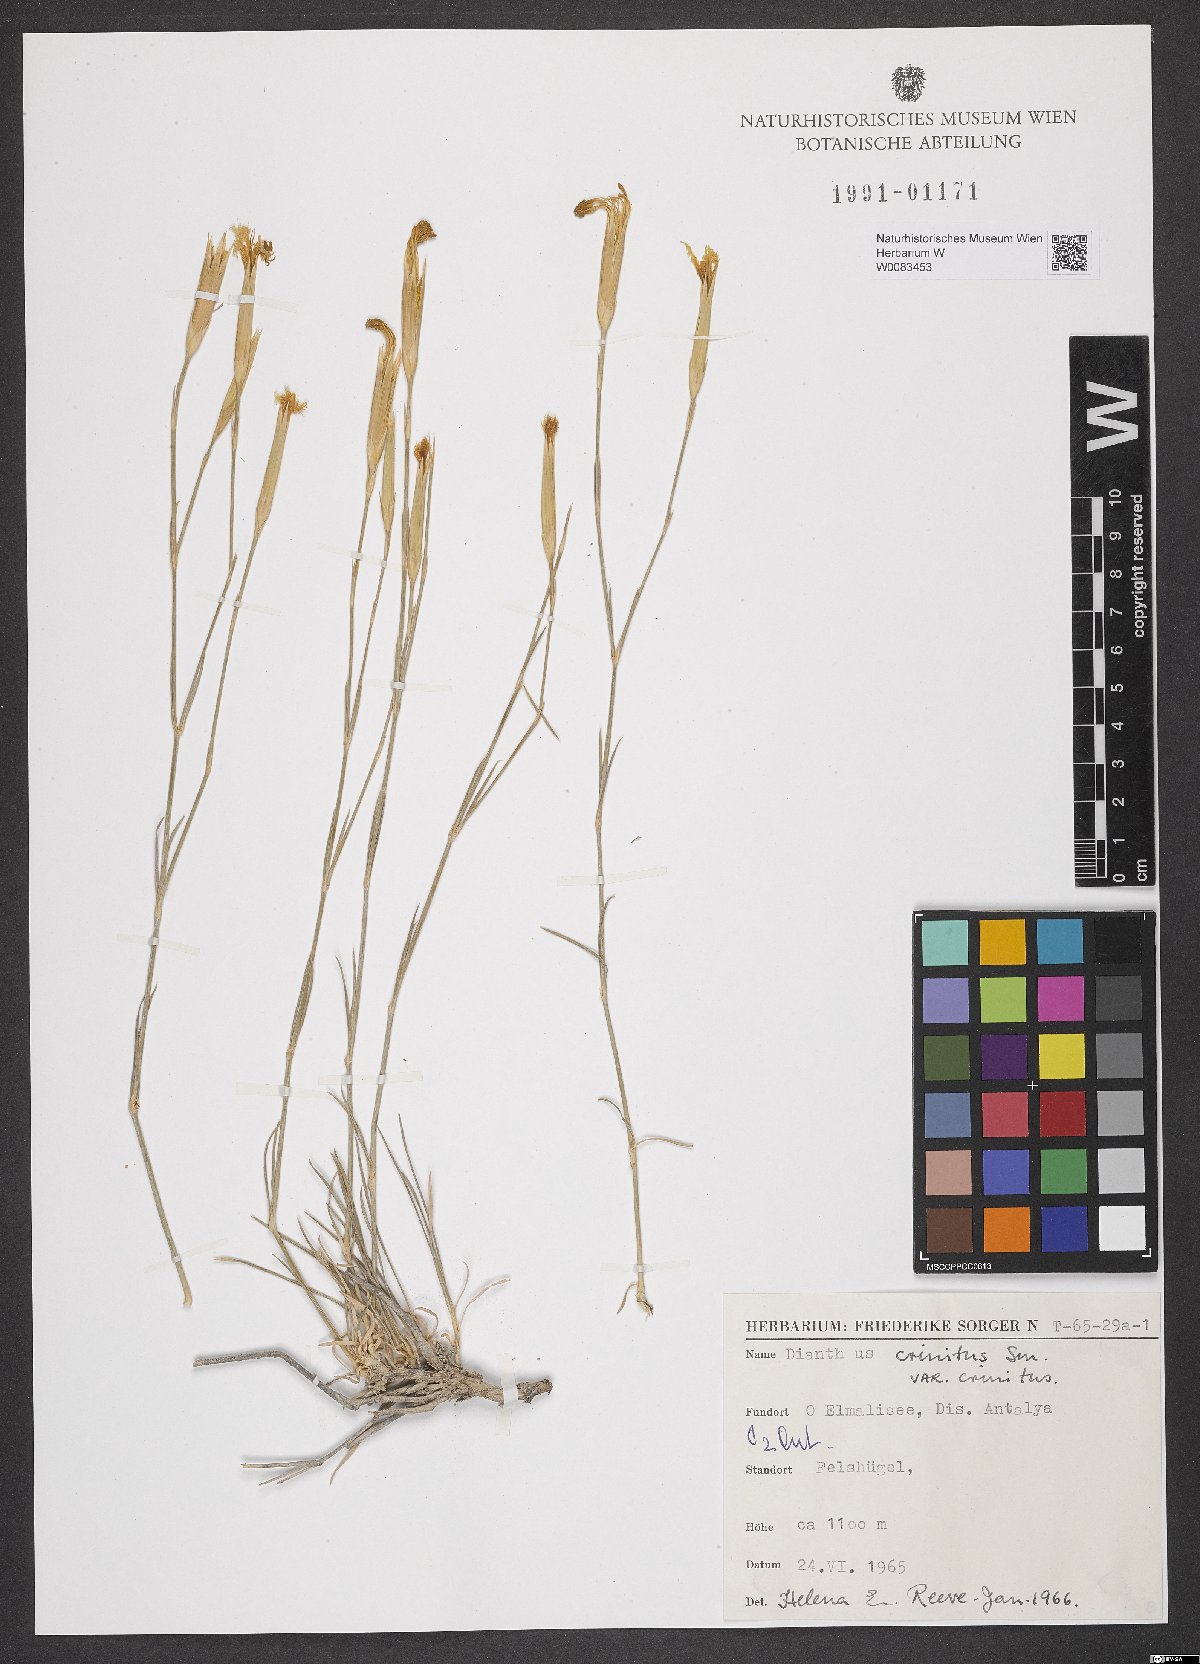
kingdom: Plantae
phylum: Tracheophyta
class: Magnoliopsida
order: Caryophyllales
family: Caryophyllaceae
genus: Dianthus
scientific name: Dianthus crinitus
